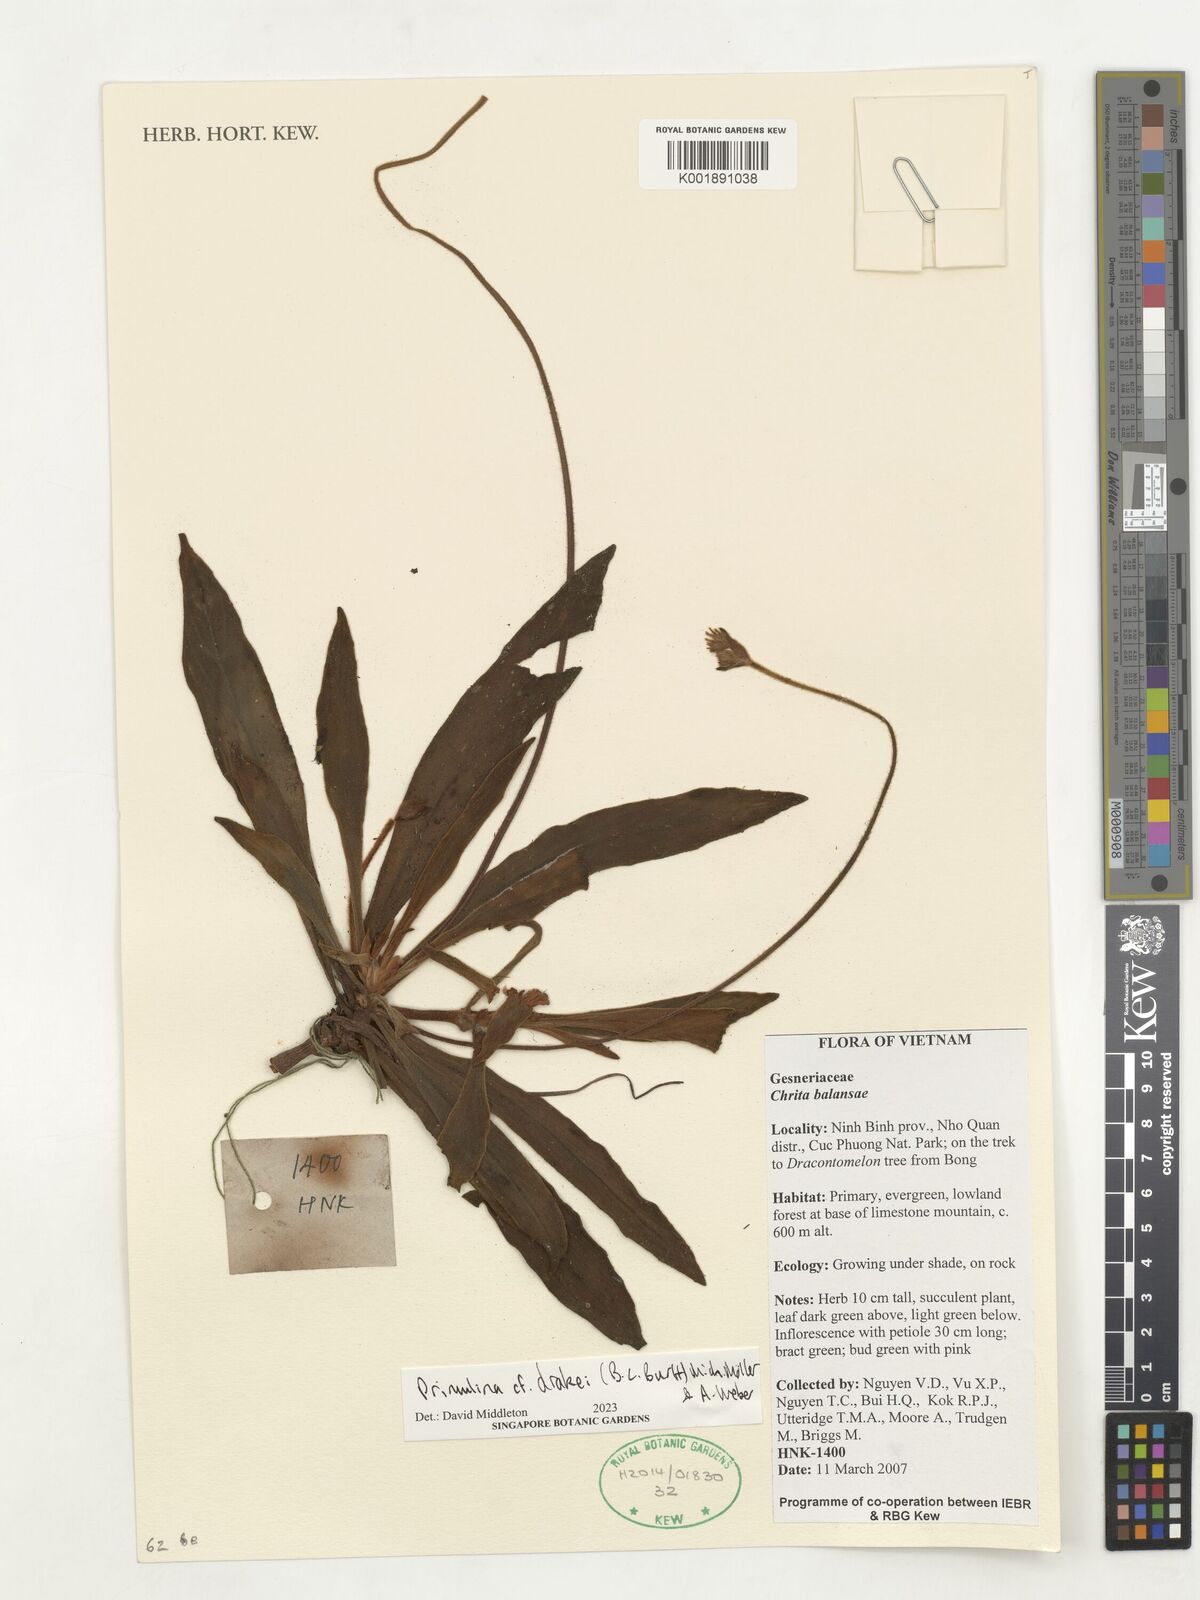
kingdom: Plantae
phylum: Tracheophyta
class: Magnoliopsida
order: Lamiales
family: Gesneriaceae
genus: Primulina
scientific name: Primulina drakei
